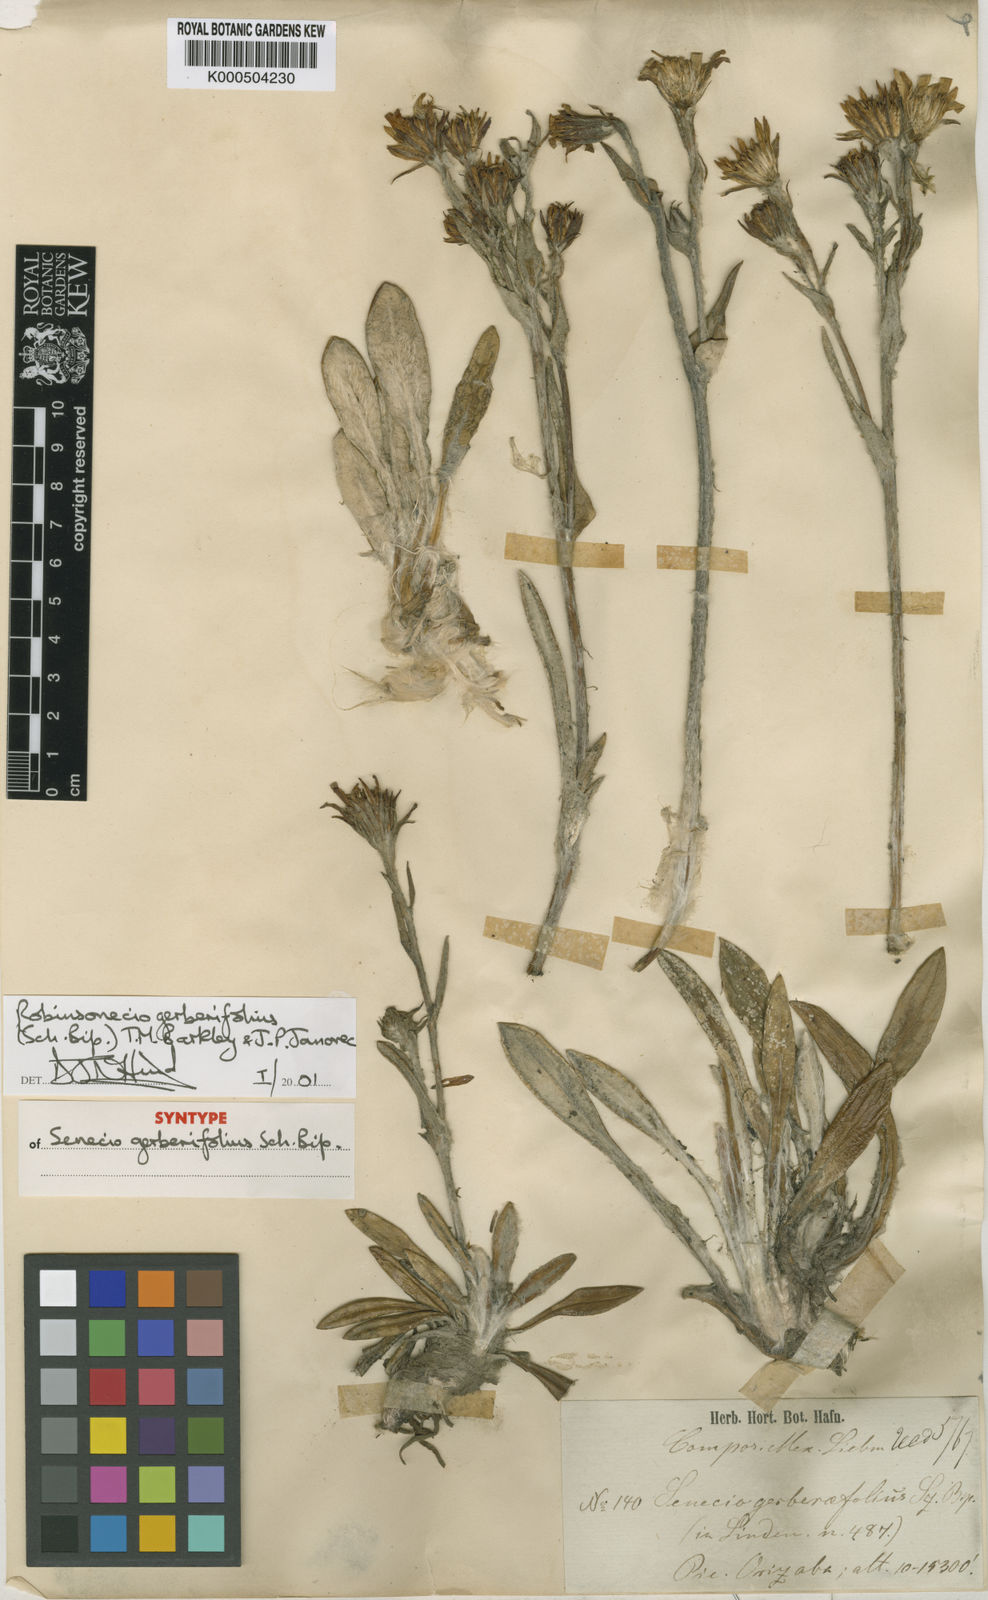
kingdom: Plantae
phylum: Tracheophyta
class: Magnoliopsida
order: Asterales
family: Asteraceae
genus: Robinsonecio
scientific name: Robinsonecio gerberifolius
